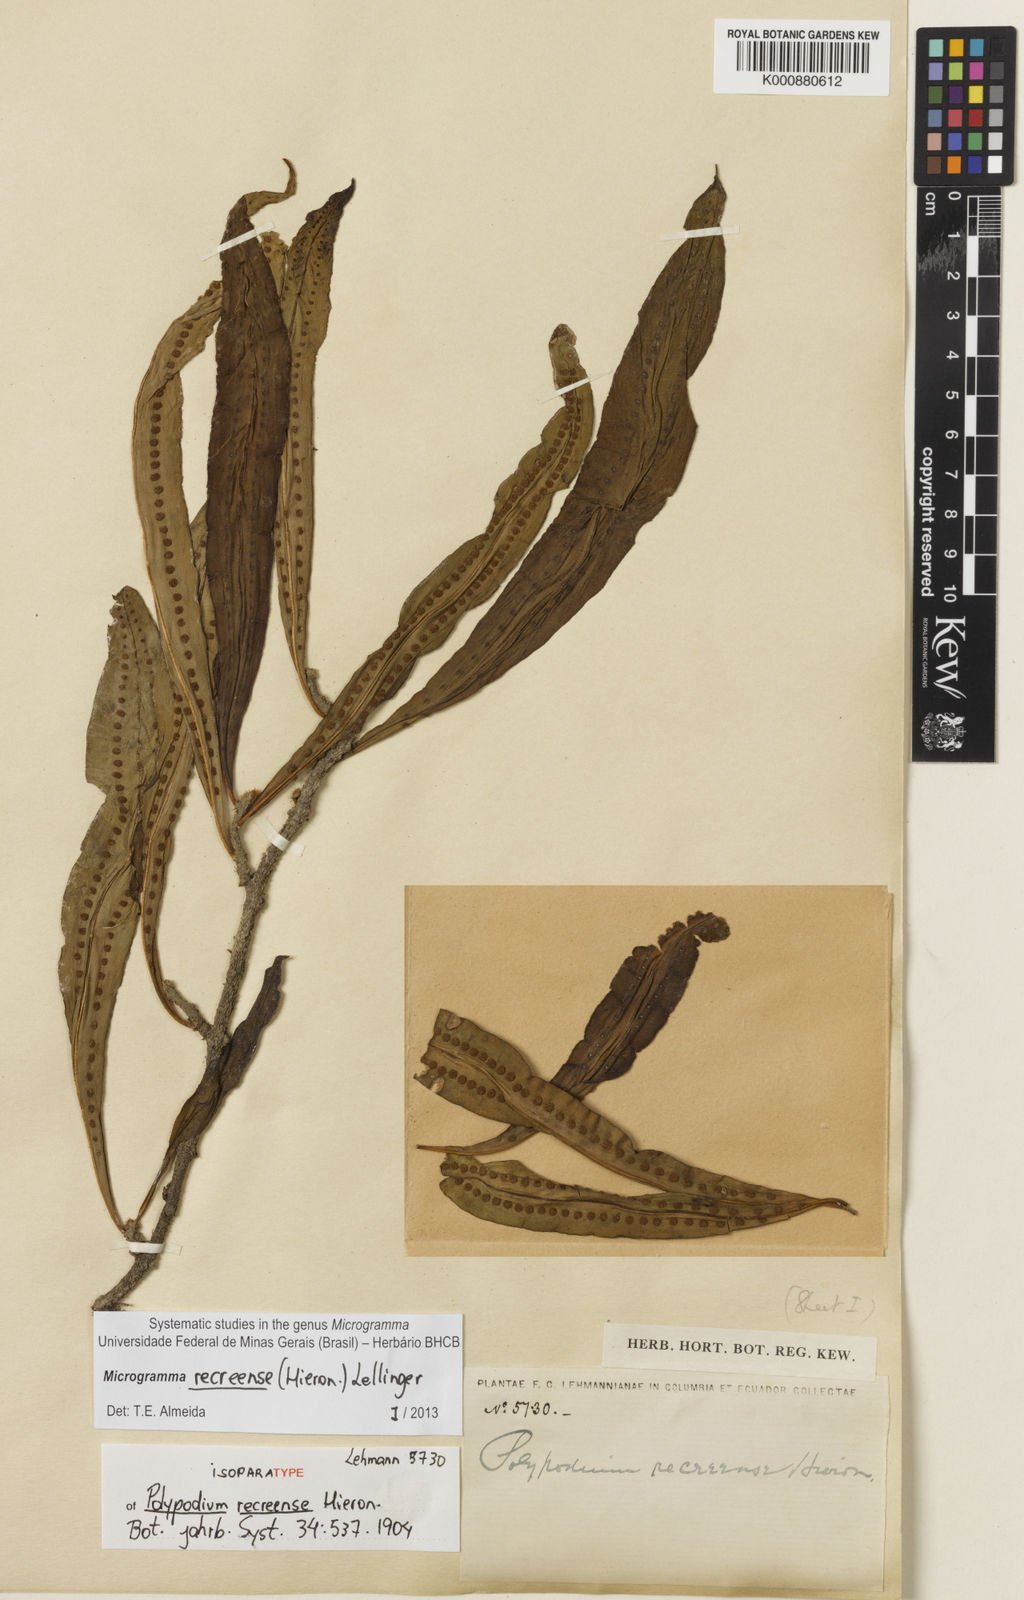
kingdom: Plantae
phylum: Tracheophyta
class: Polypodiopsida
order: Polypodiales
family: Polypodiaceae
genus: Microgramma
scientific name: Microgramma recreense
